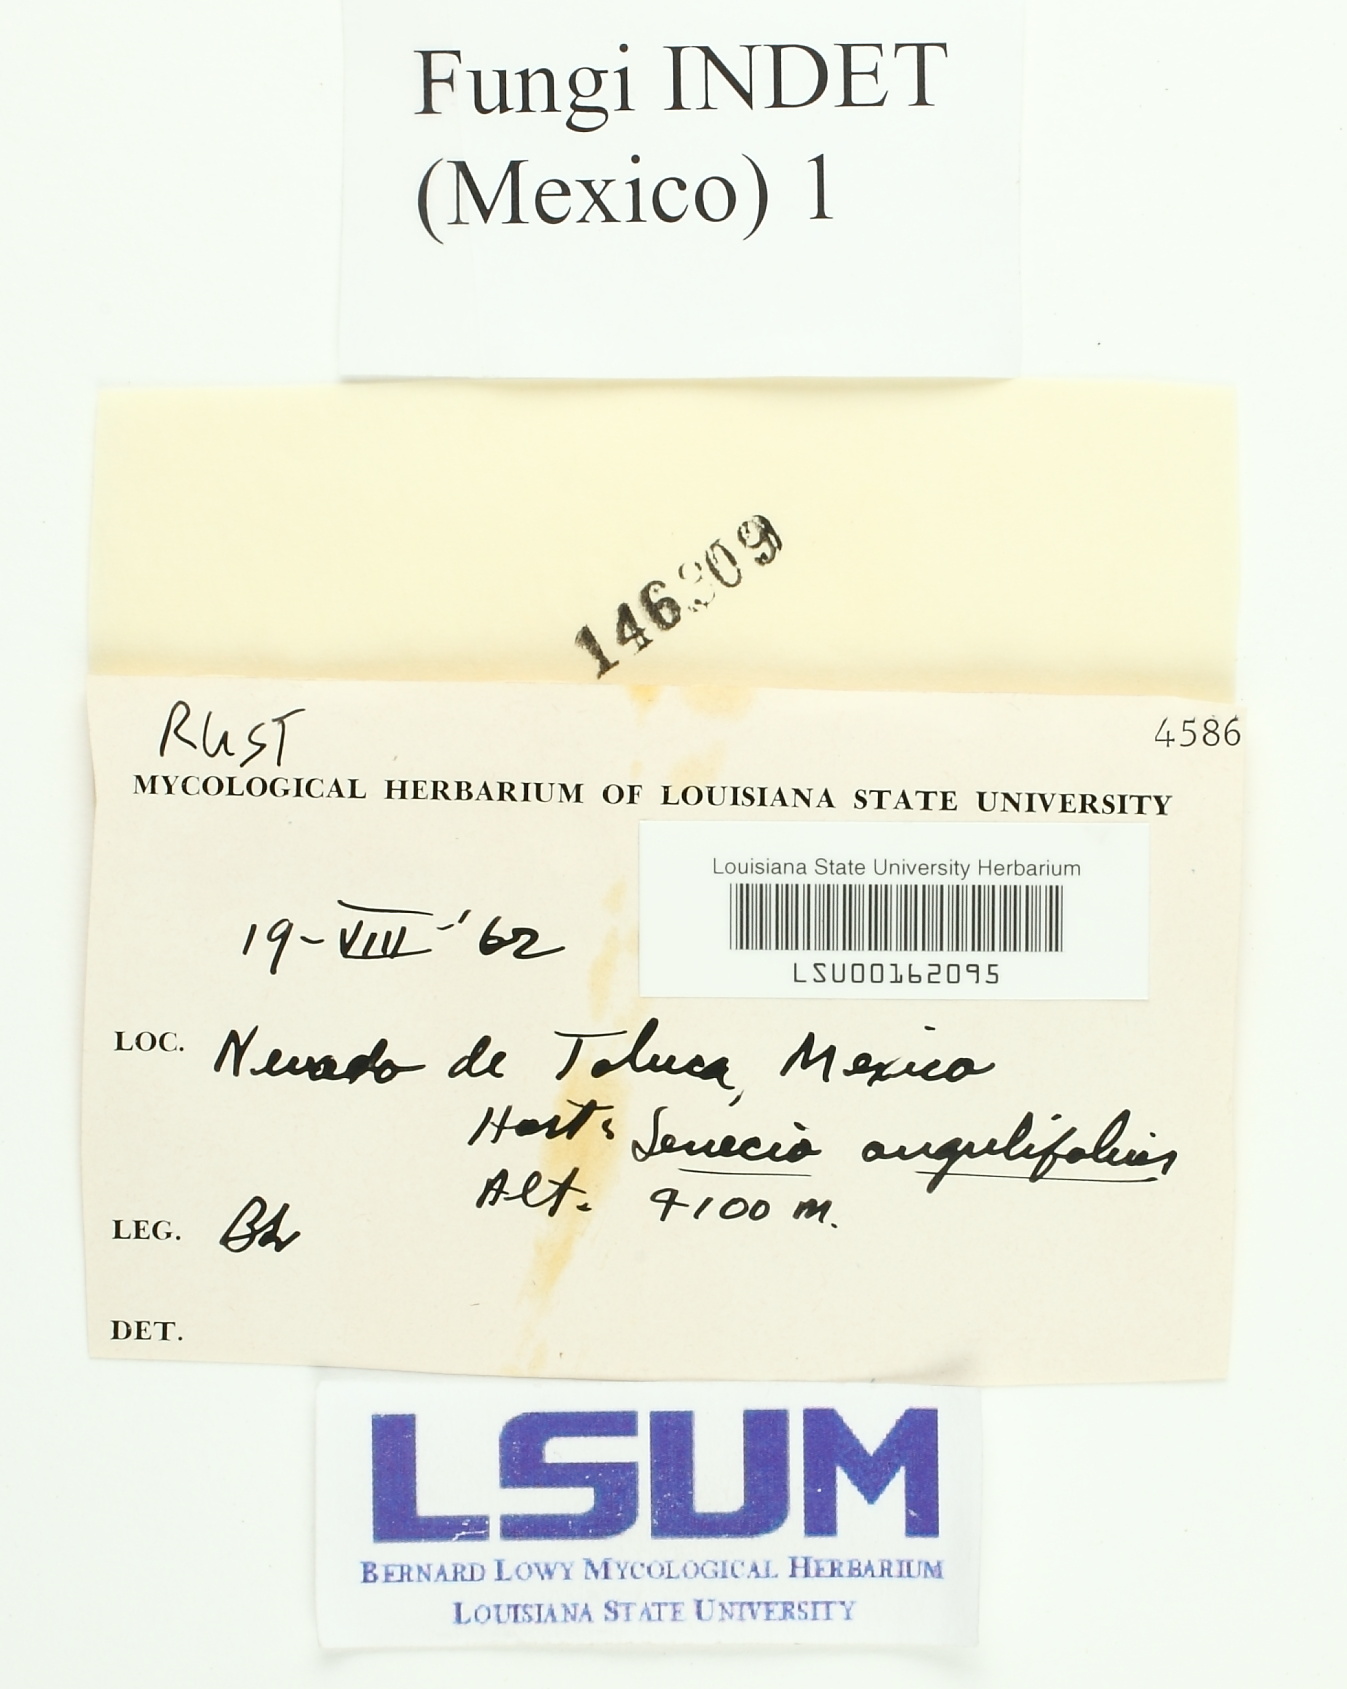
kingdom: Fungi
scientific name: Fungi
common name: Fungi
